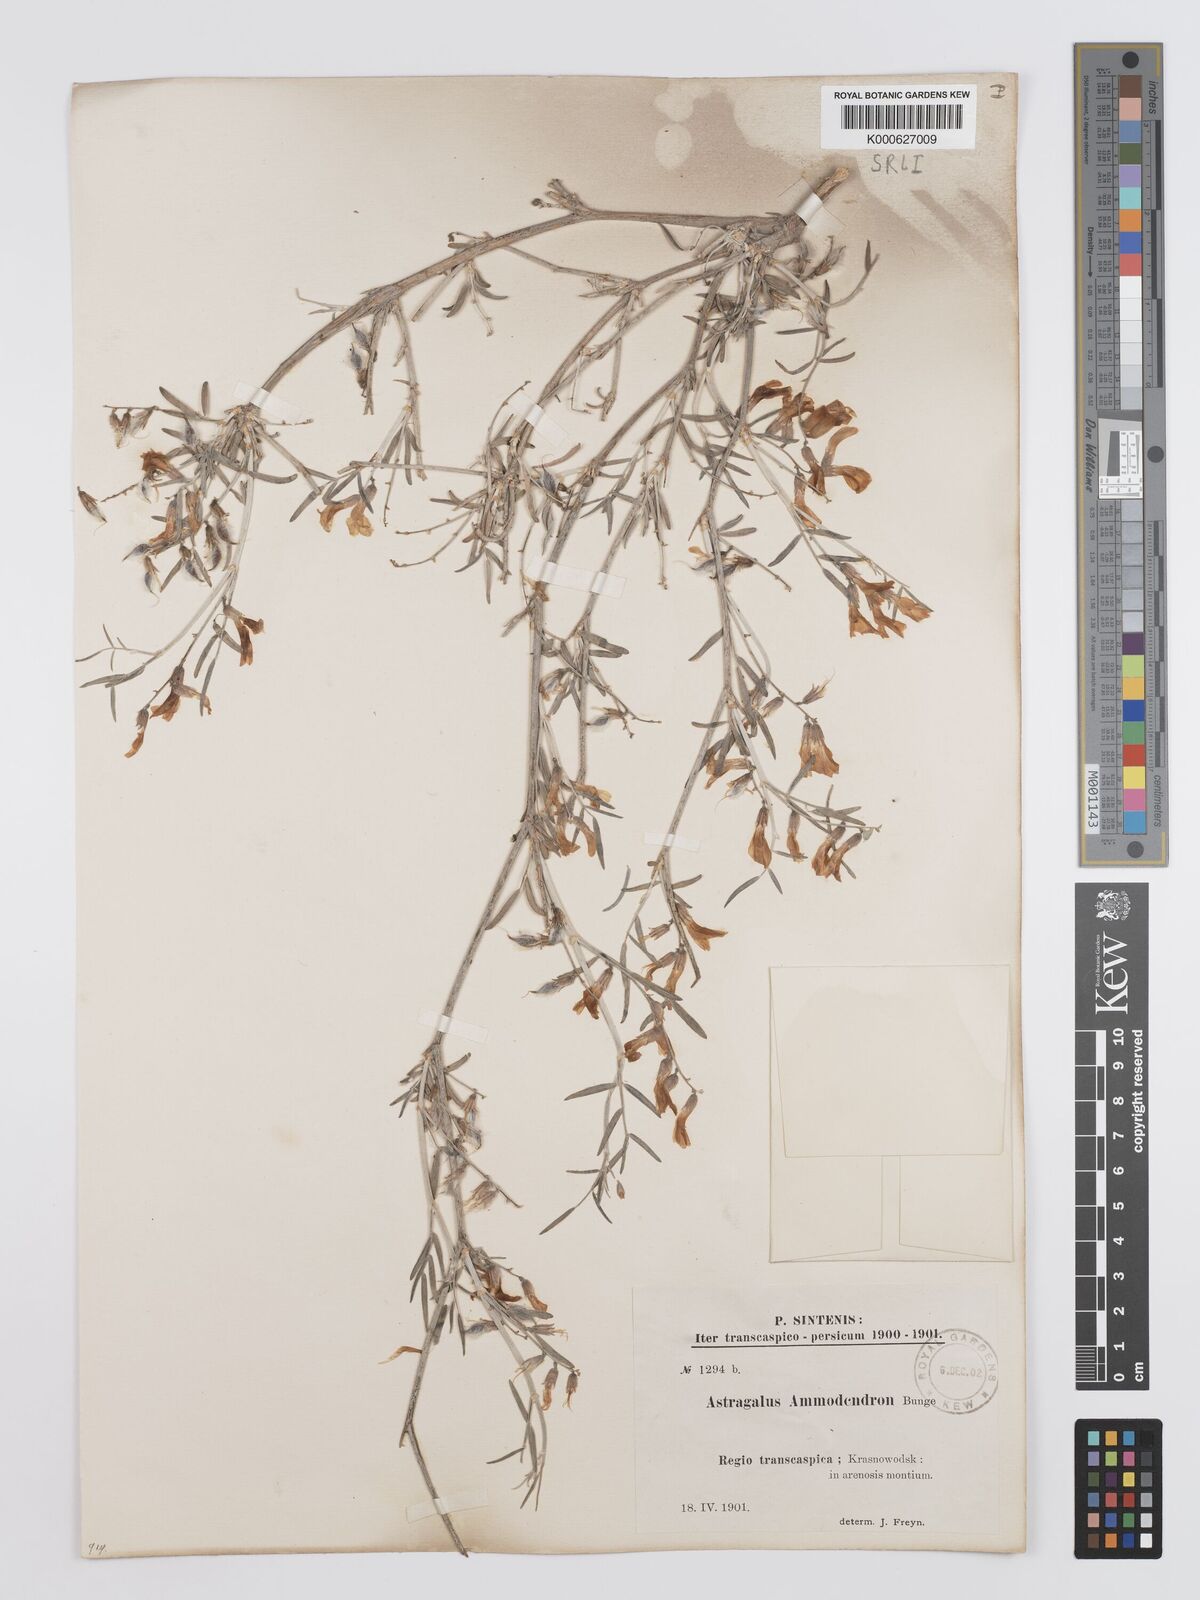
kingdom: Plantae
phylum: Tracheophyta
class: Magnoliopsida
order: Fabales
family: Fabaceae
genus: Astragalus
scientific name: Astragalus ammodendron
